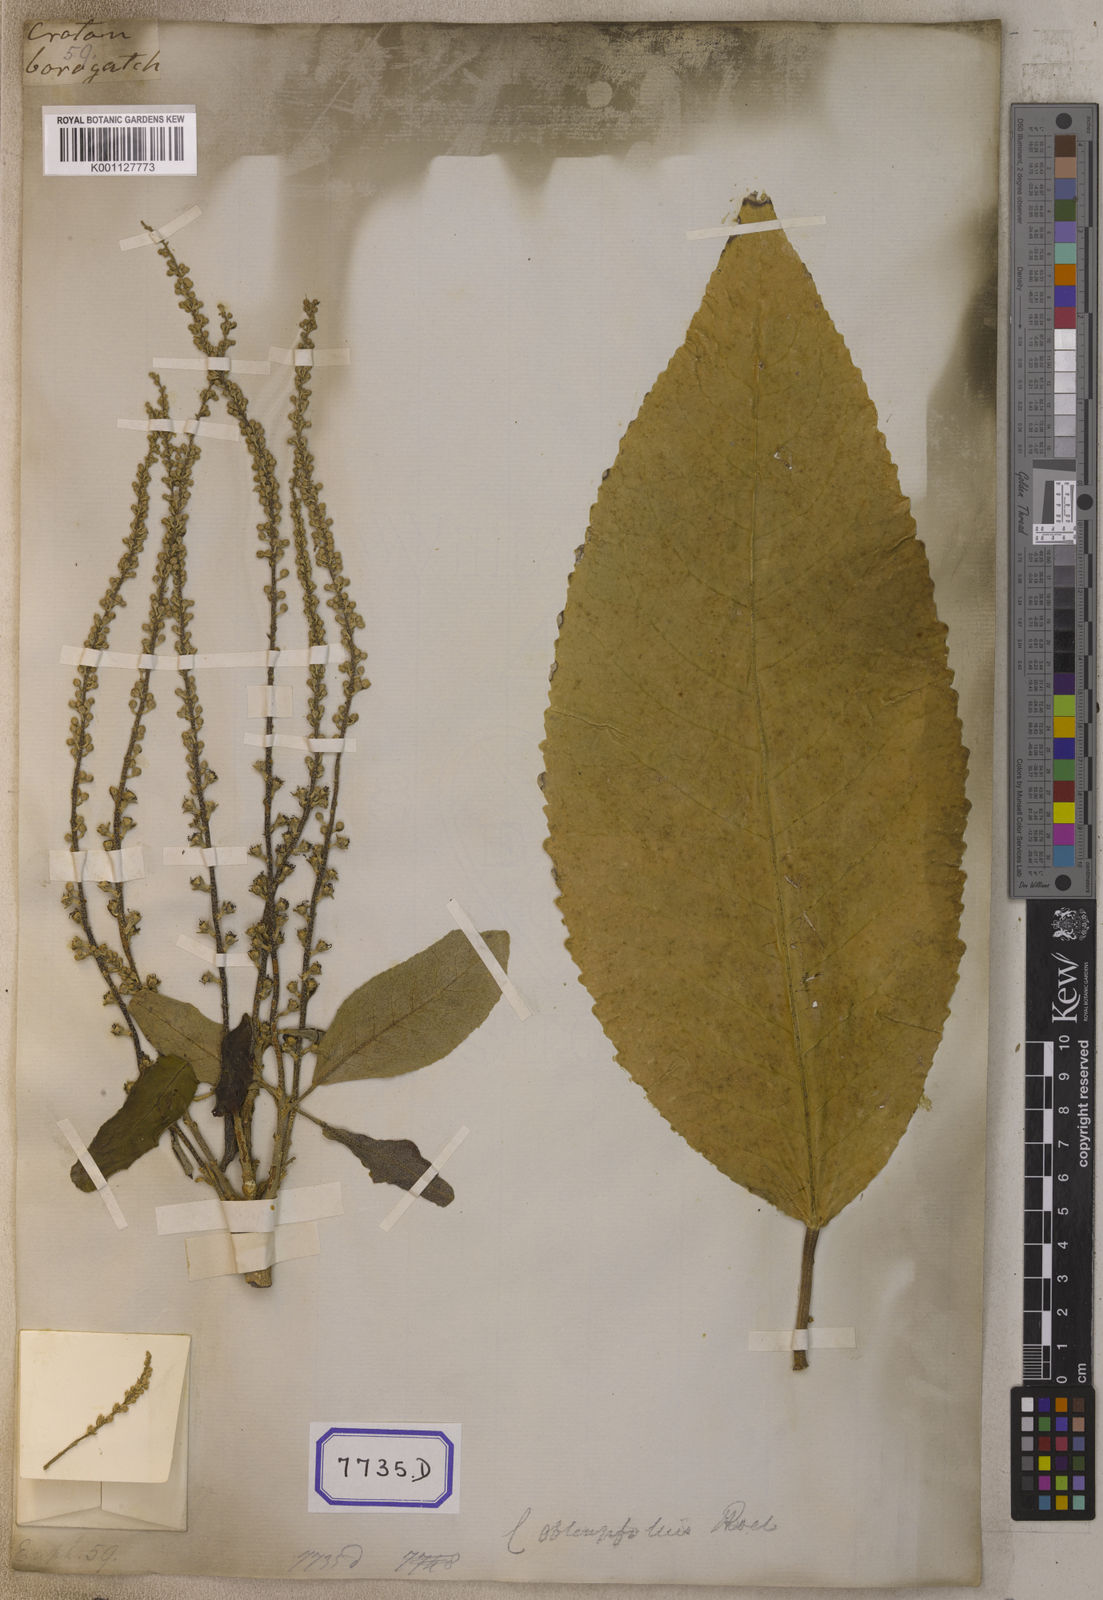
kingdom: Plantae
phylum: Tracheophyta
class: Magnoliopsida
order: Malpighiales
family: Euphorbiaceae
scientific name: Euphorbiaceae
